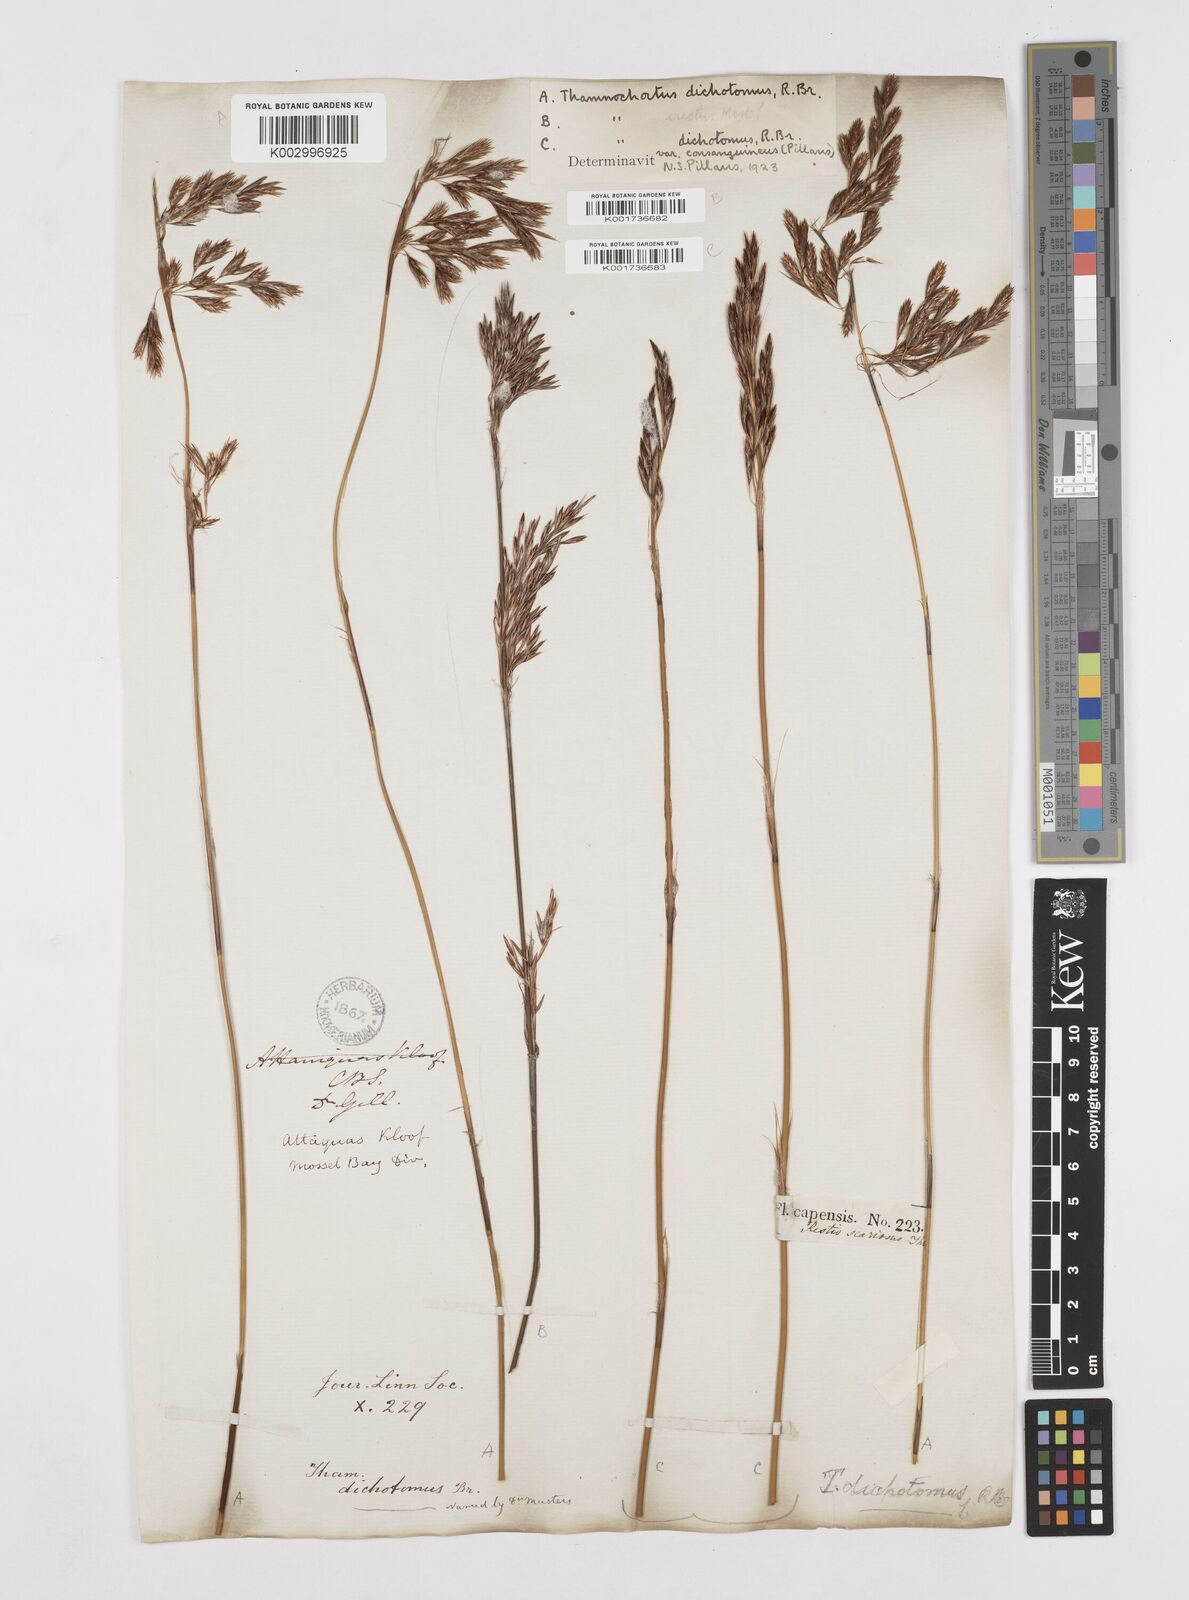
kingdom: Plantae
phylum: Tracheophyta
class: Liliopsida
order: Poales
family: Restionaceae
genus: Thamnochortus
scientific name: Thamnochortus lucens
